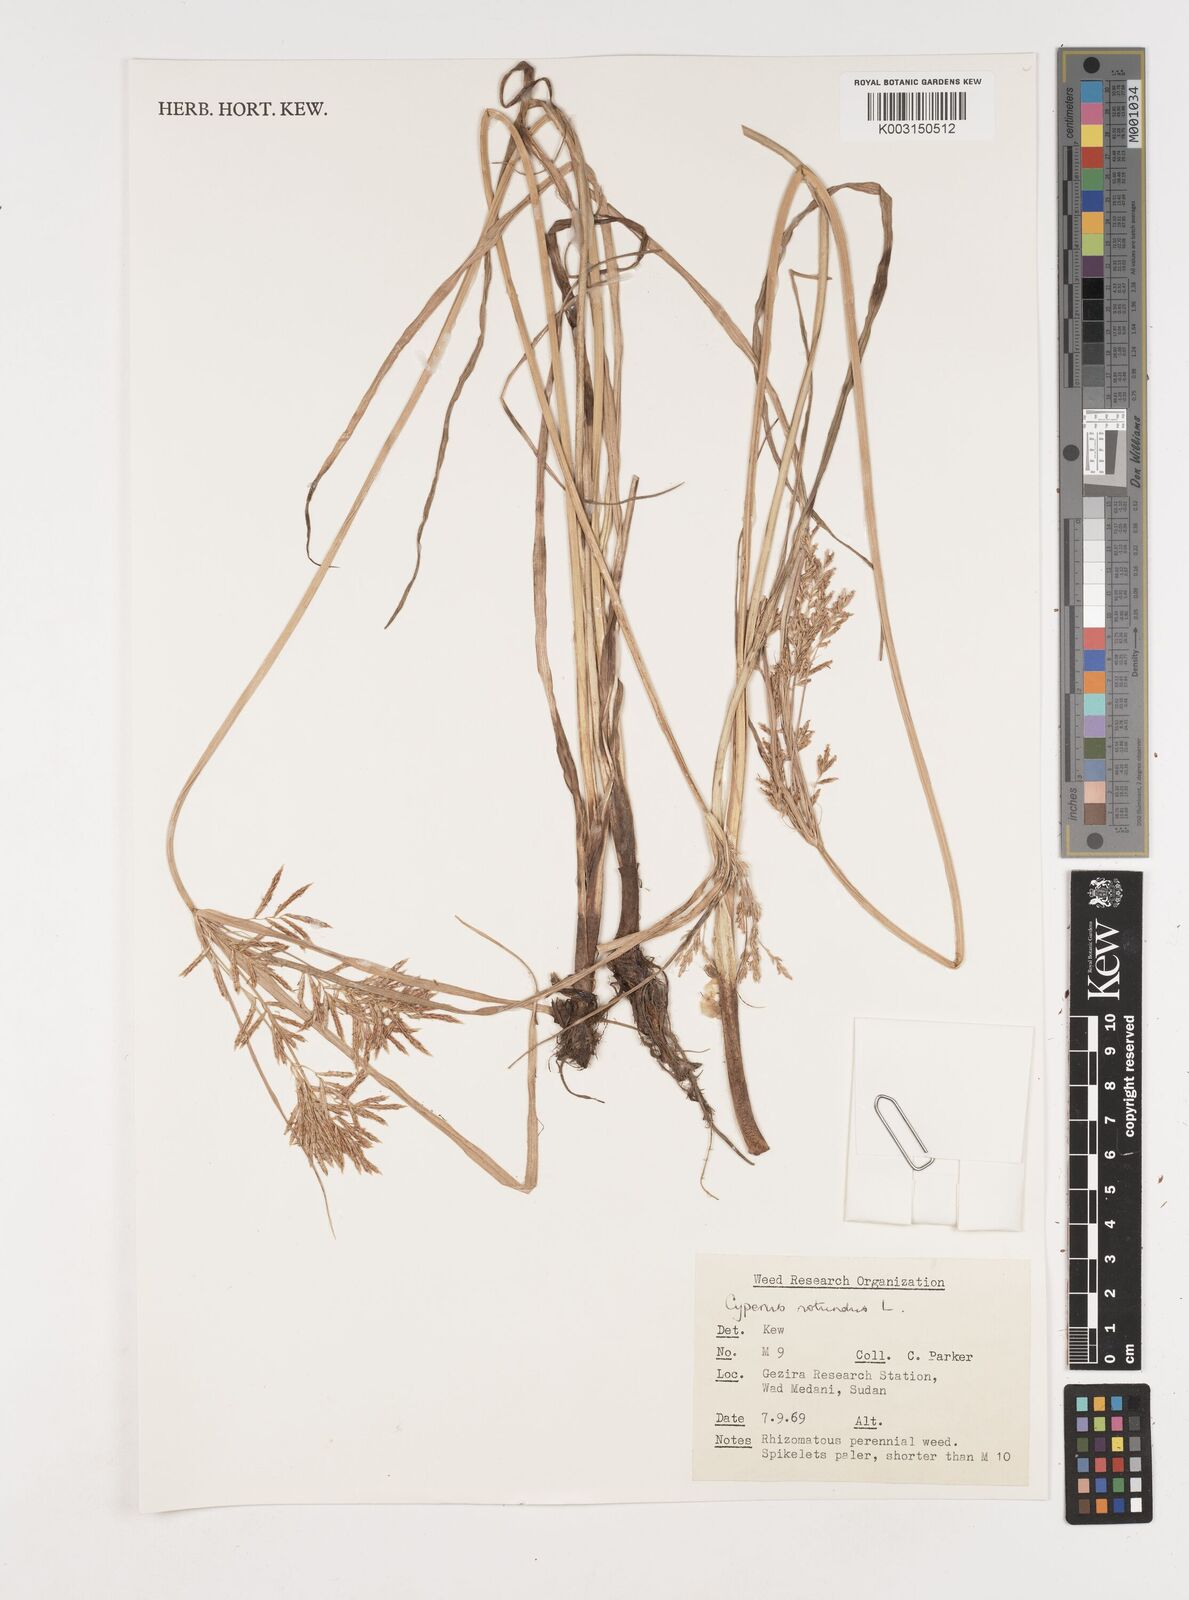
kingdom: Plantae
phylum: Tracheophyta
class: Liliopsida
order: Poales
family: Cyperaceae
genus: Cyperus
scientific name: Cyperus rotundus
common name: Nutgrass
